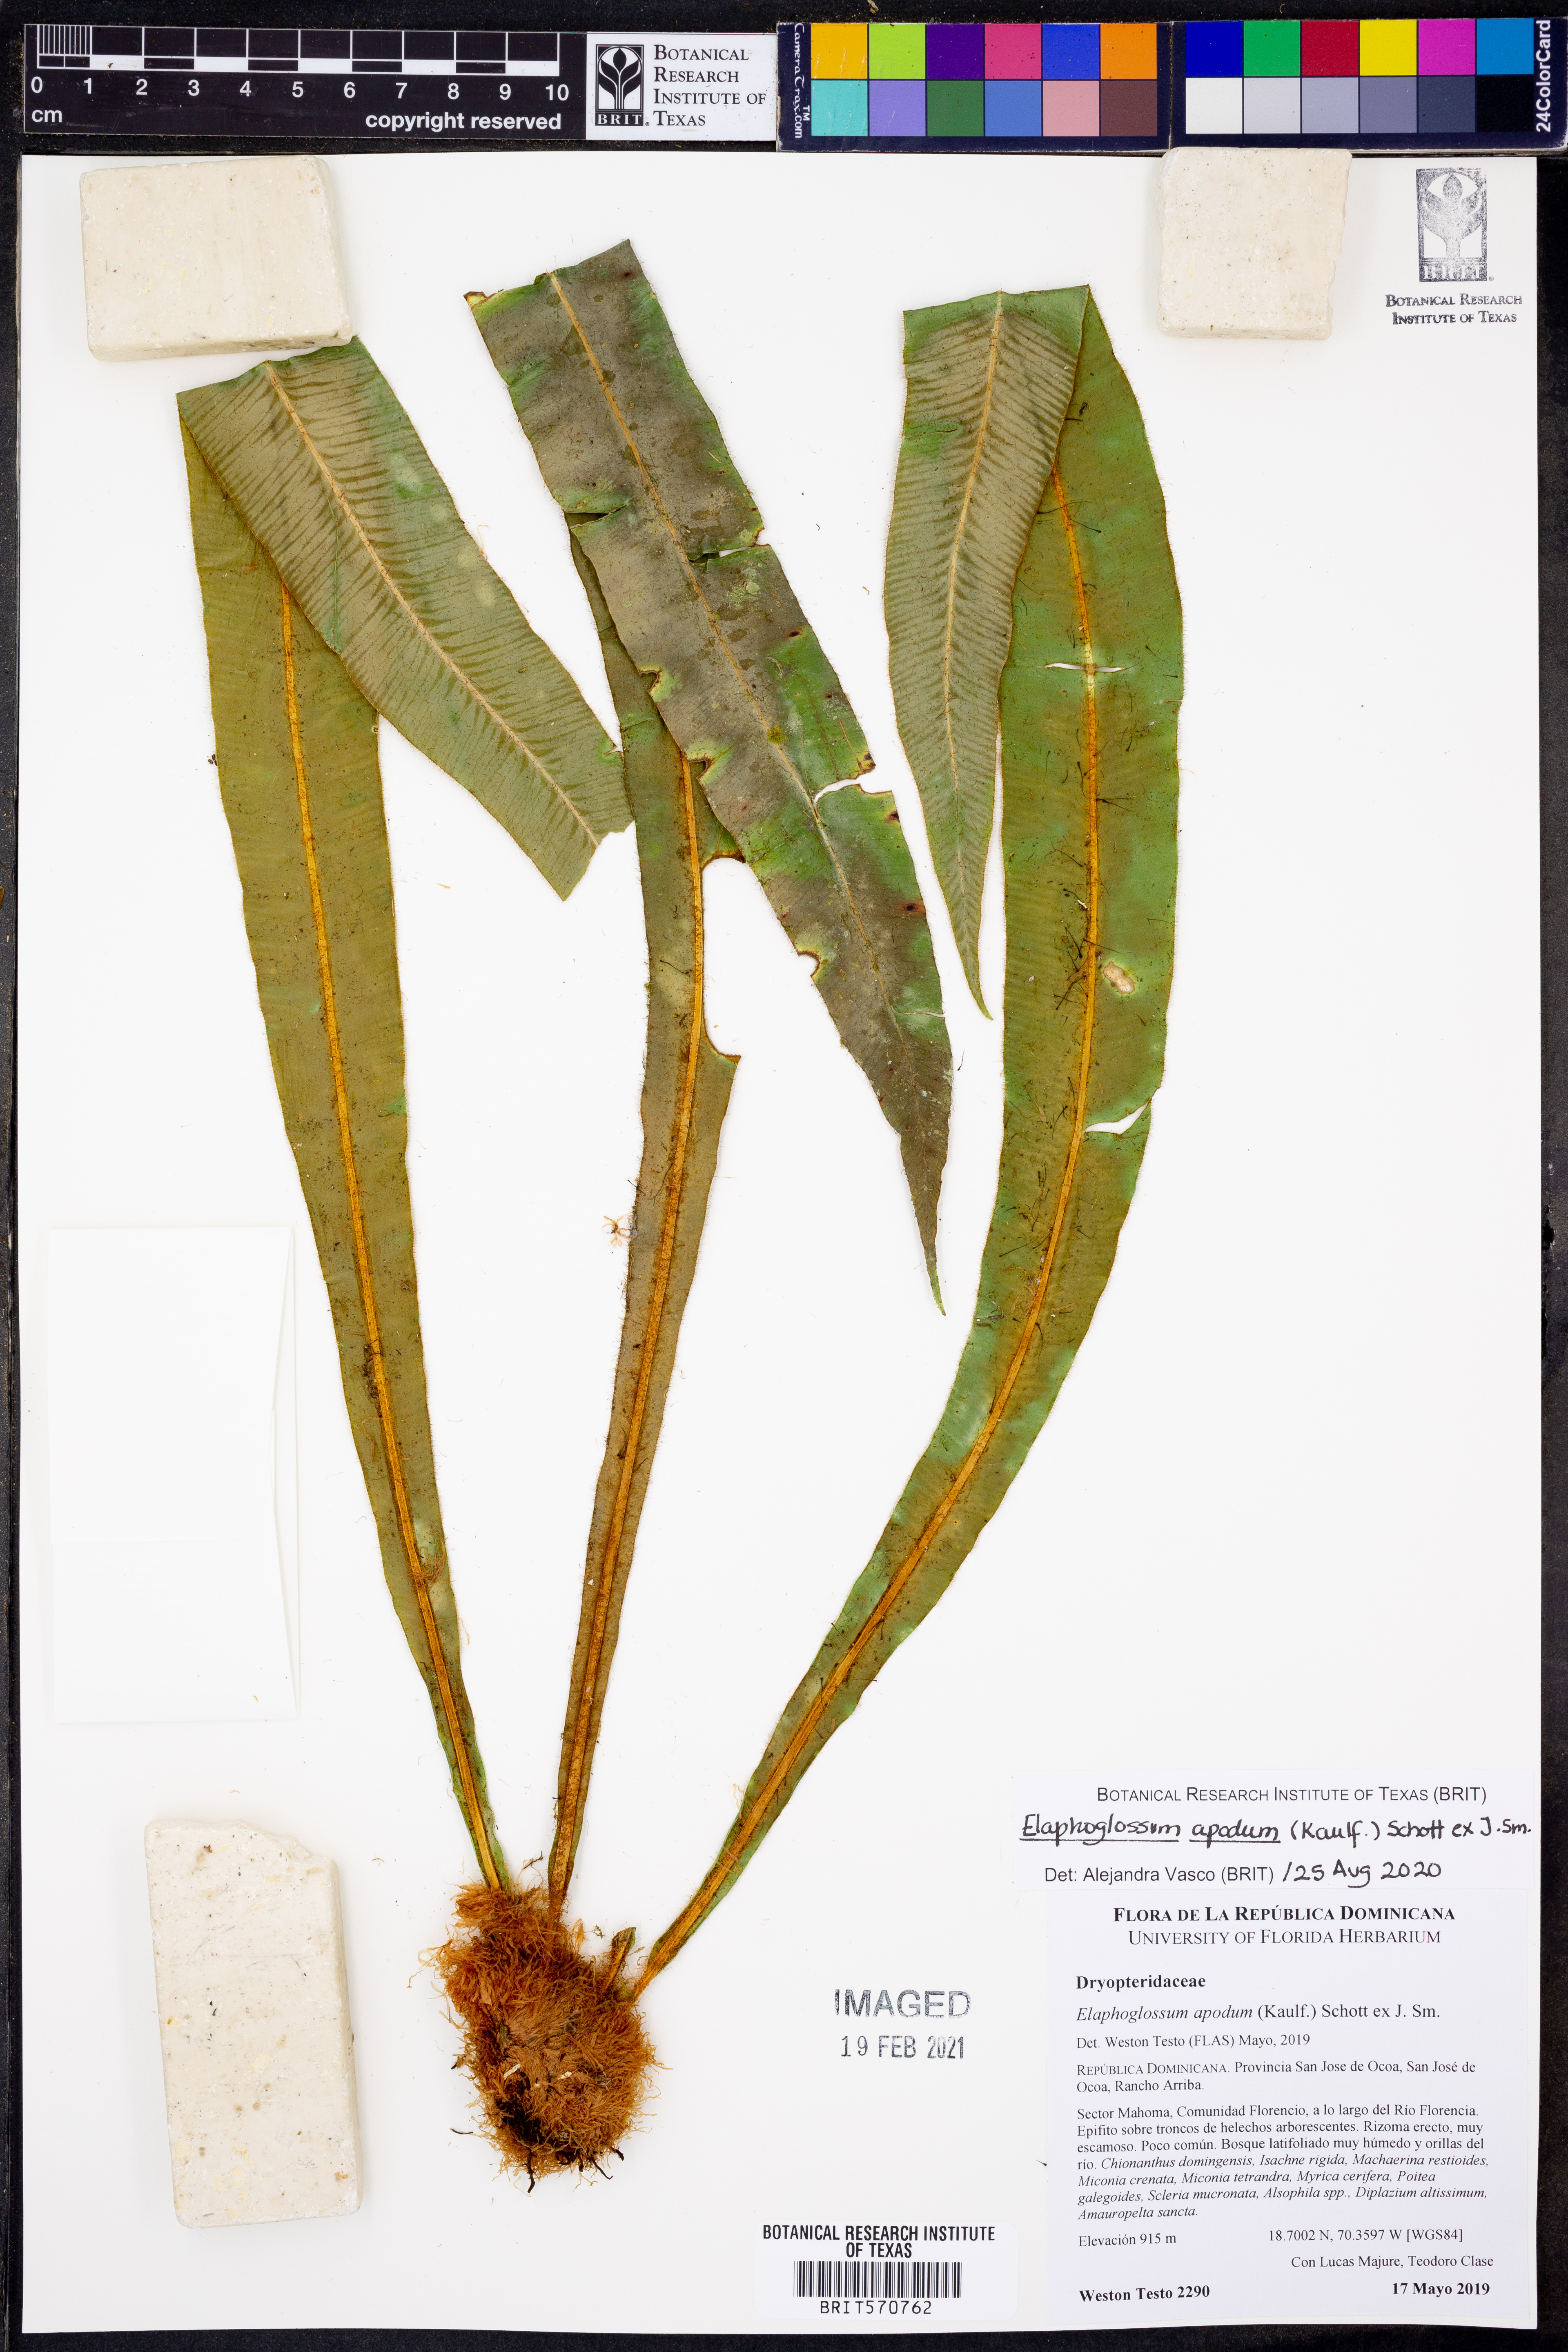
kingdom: Plantae
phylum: Tracheophyta
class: Polypodiopsida
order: Polypodiales
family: Dryopteridaceae
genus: Elaphoglossum
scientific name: Elaphoglossum apodum
